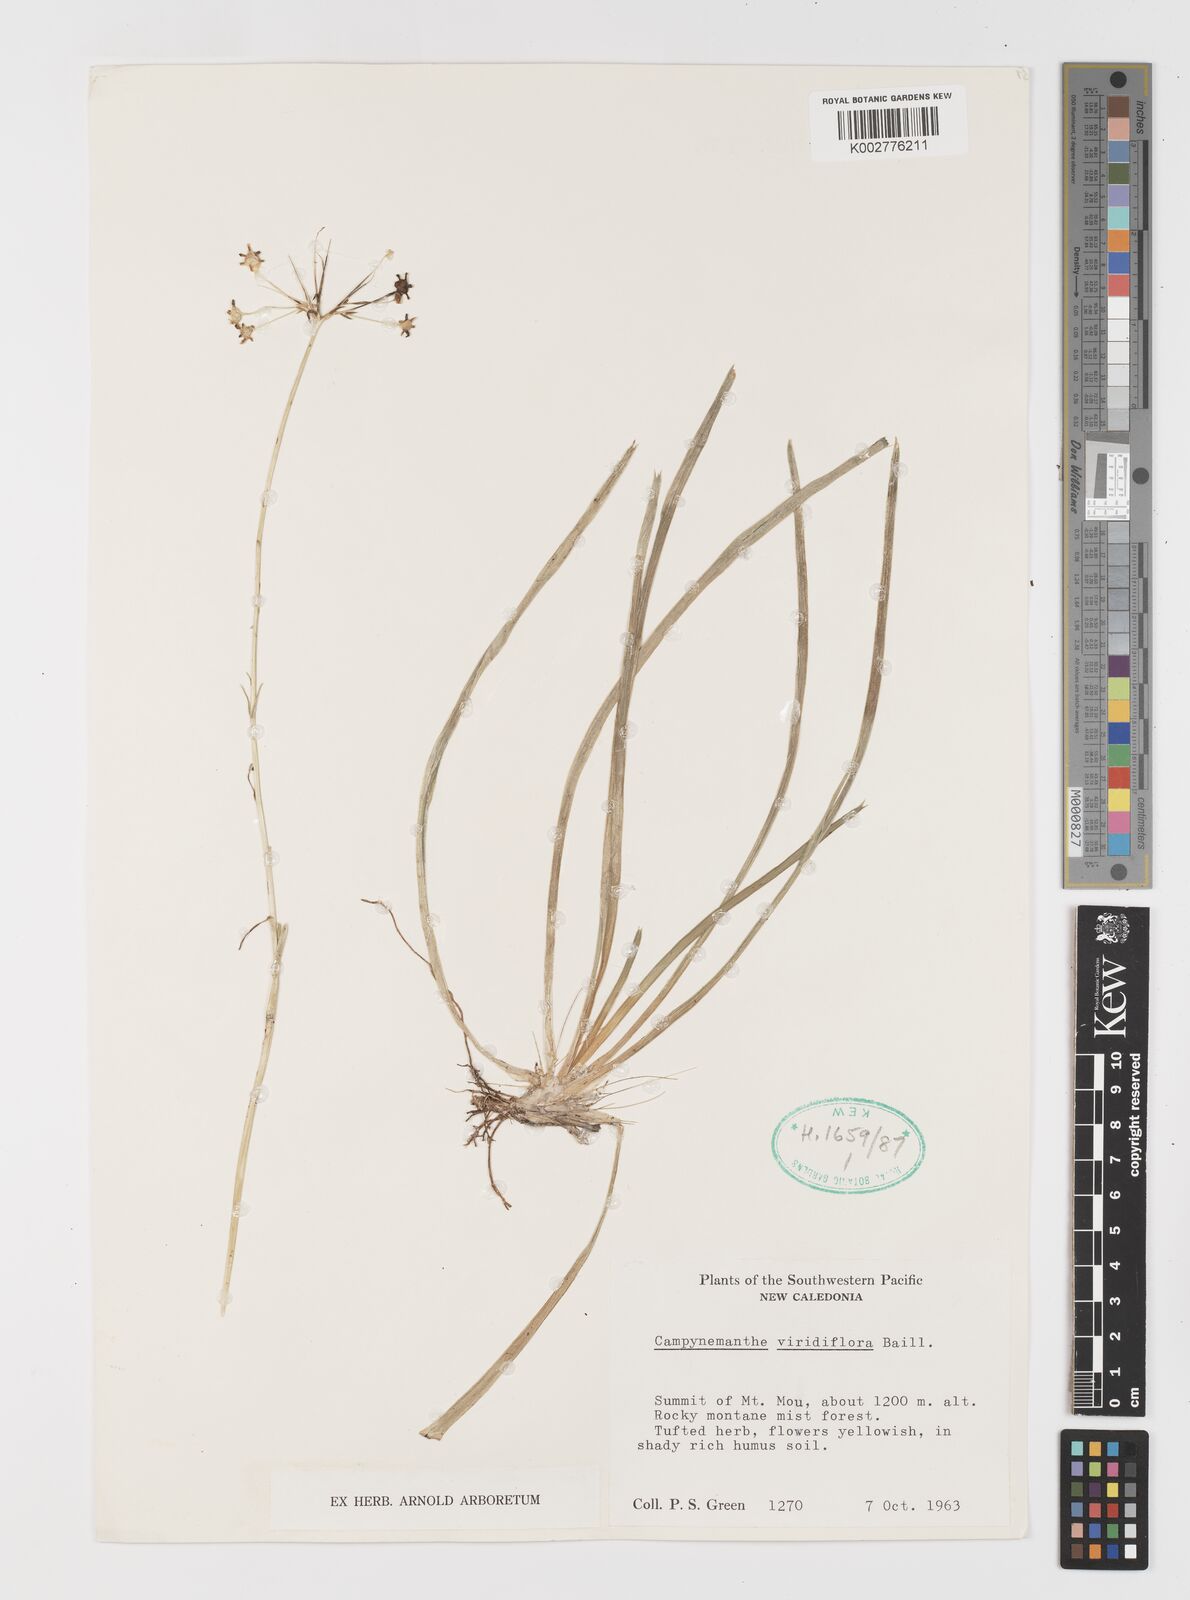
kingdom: Plantae
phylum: Tracheophyta
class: Liliopsida
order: Liliales
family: Campynemataceae
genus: Campynemanthe
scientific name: Campynemanthe viridiflora
